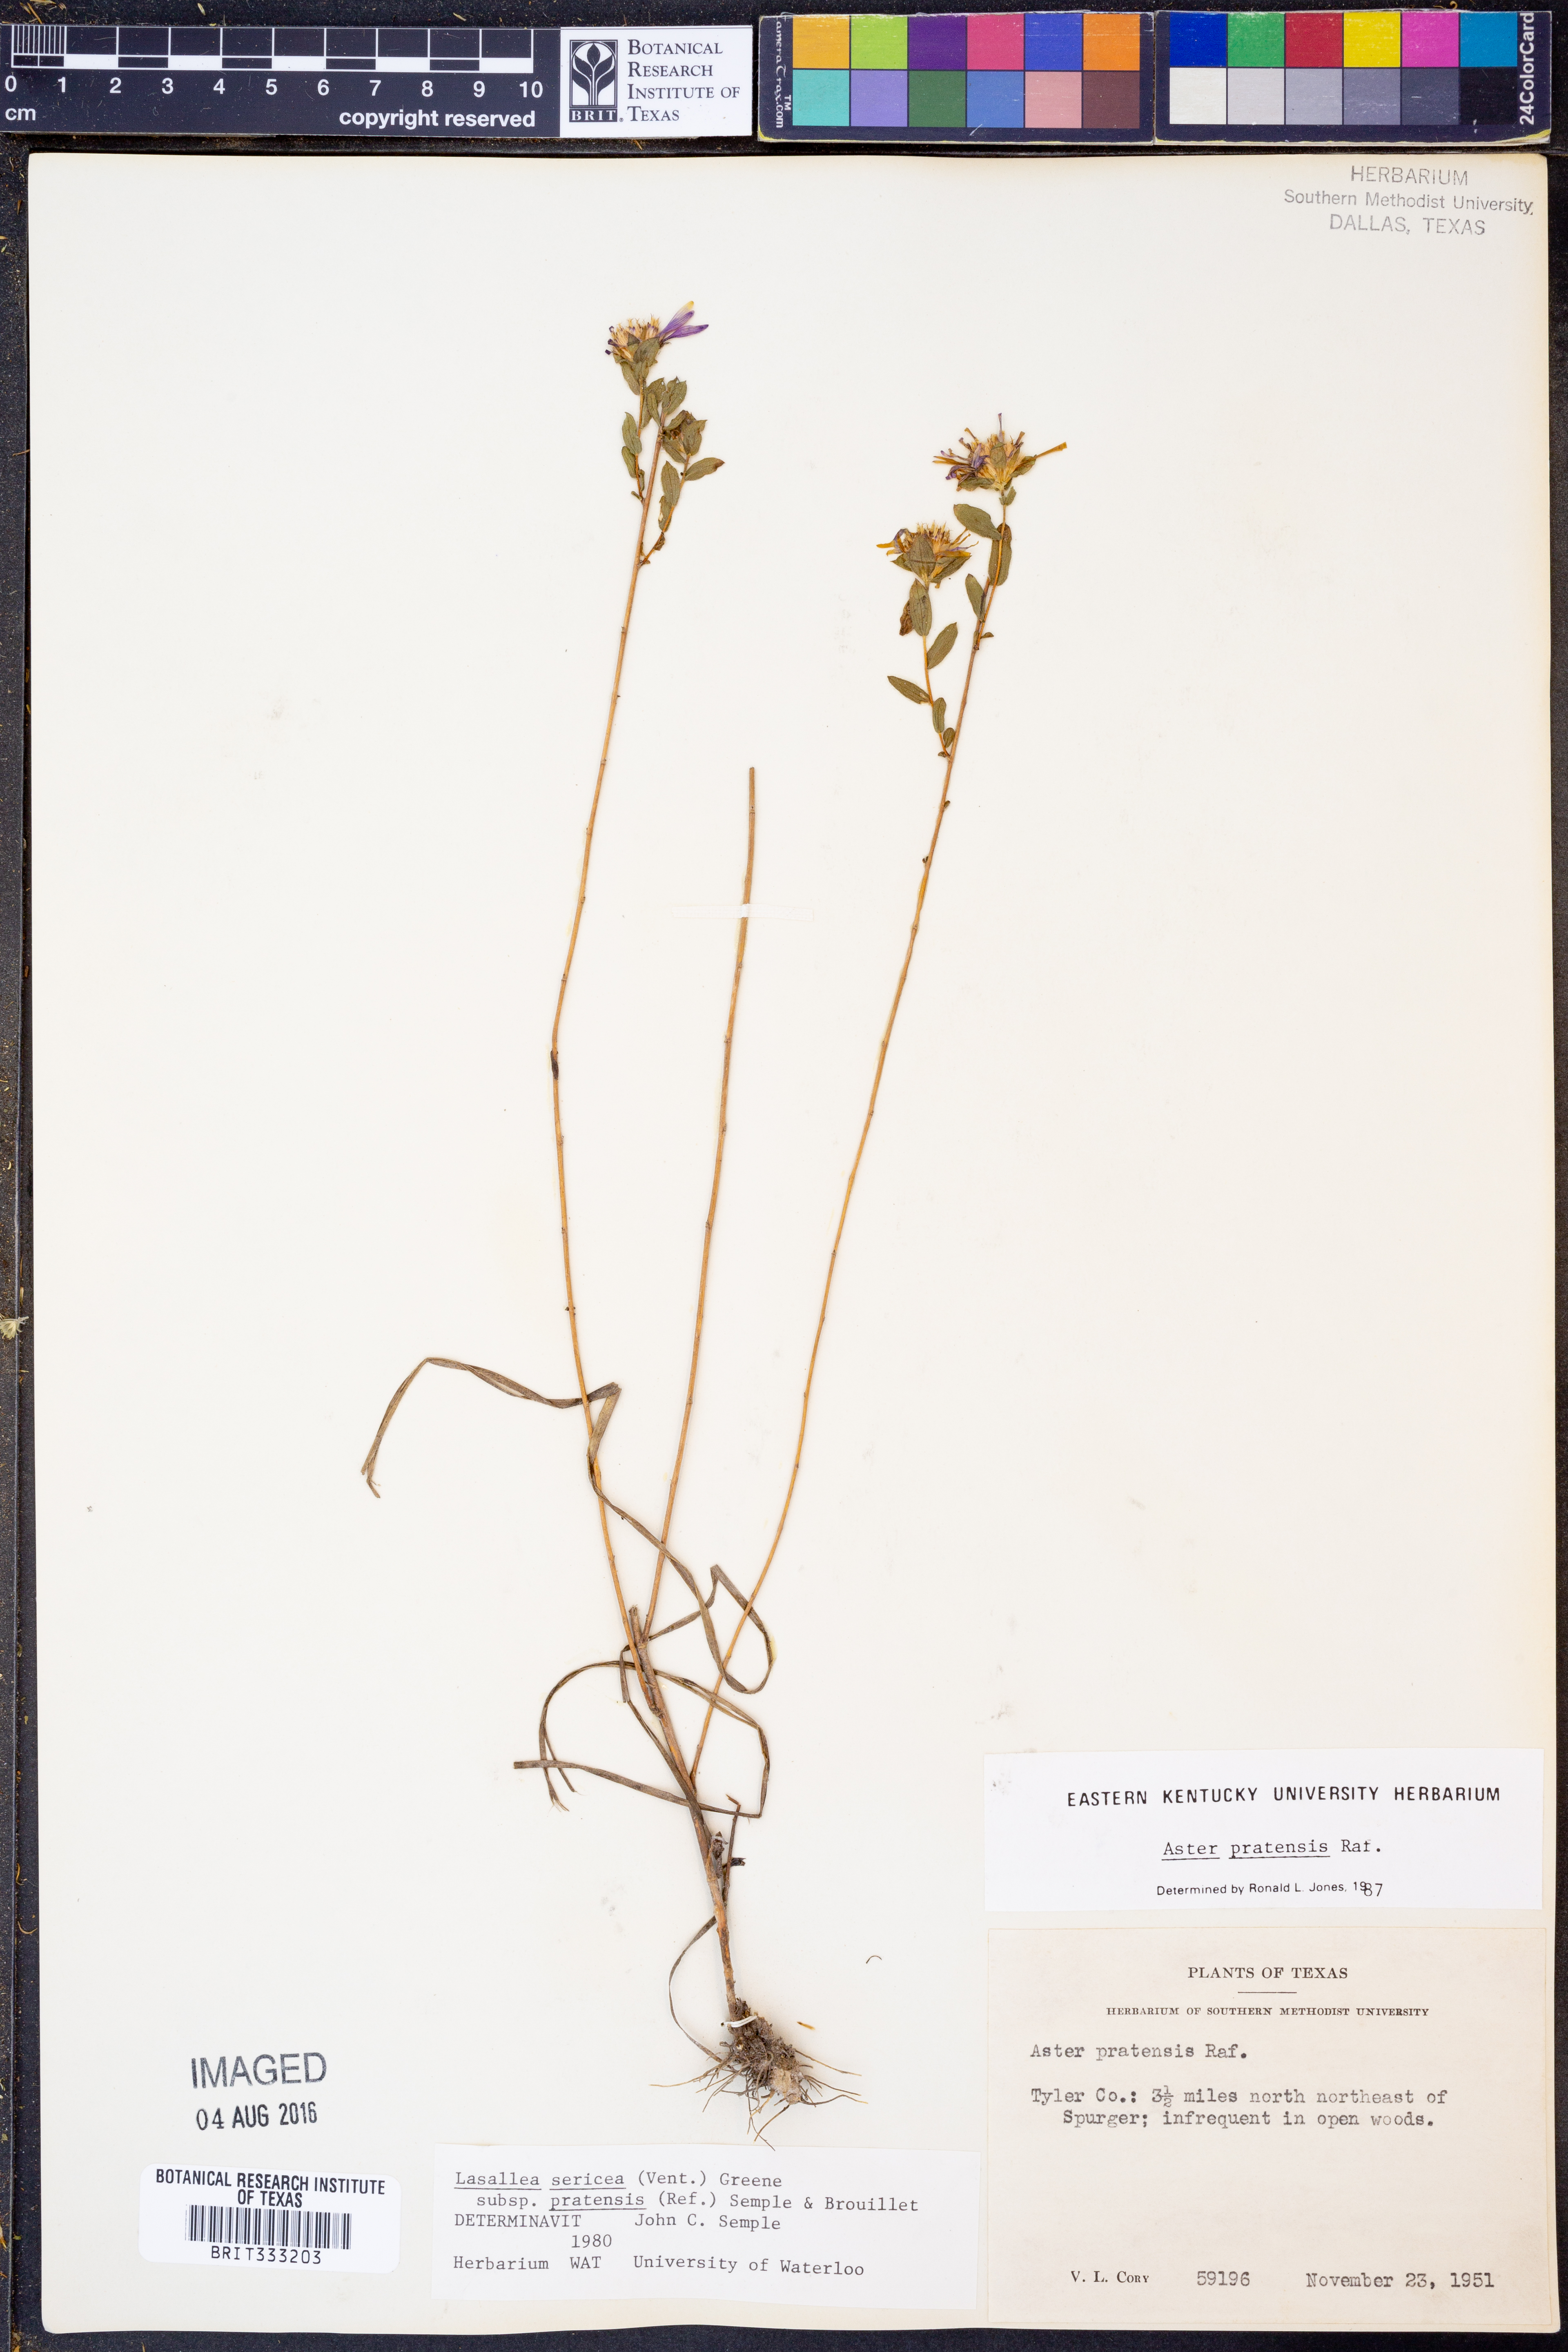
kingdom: Plantae
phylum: Tracheophyta
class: Magnoliopsida
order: Asterales
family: Asteraceae
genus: Symphyotrichum
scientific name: Symphyotrichum pratense
